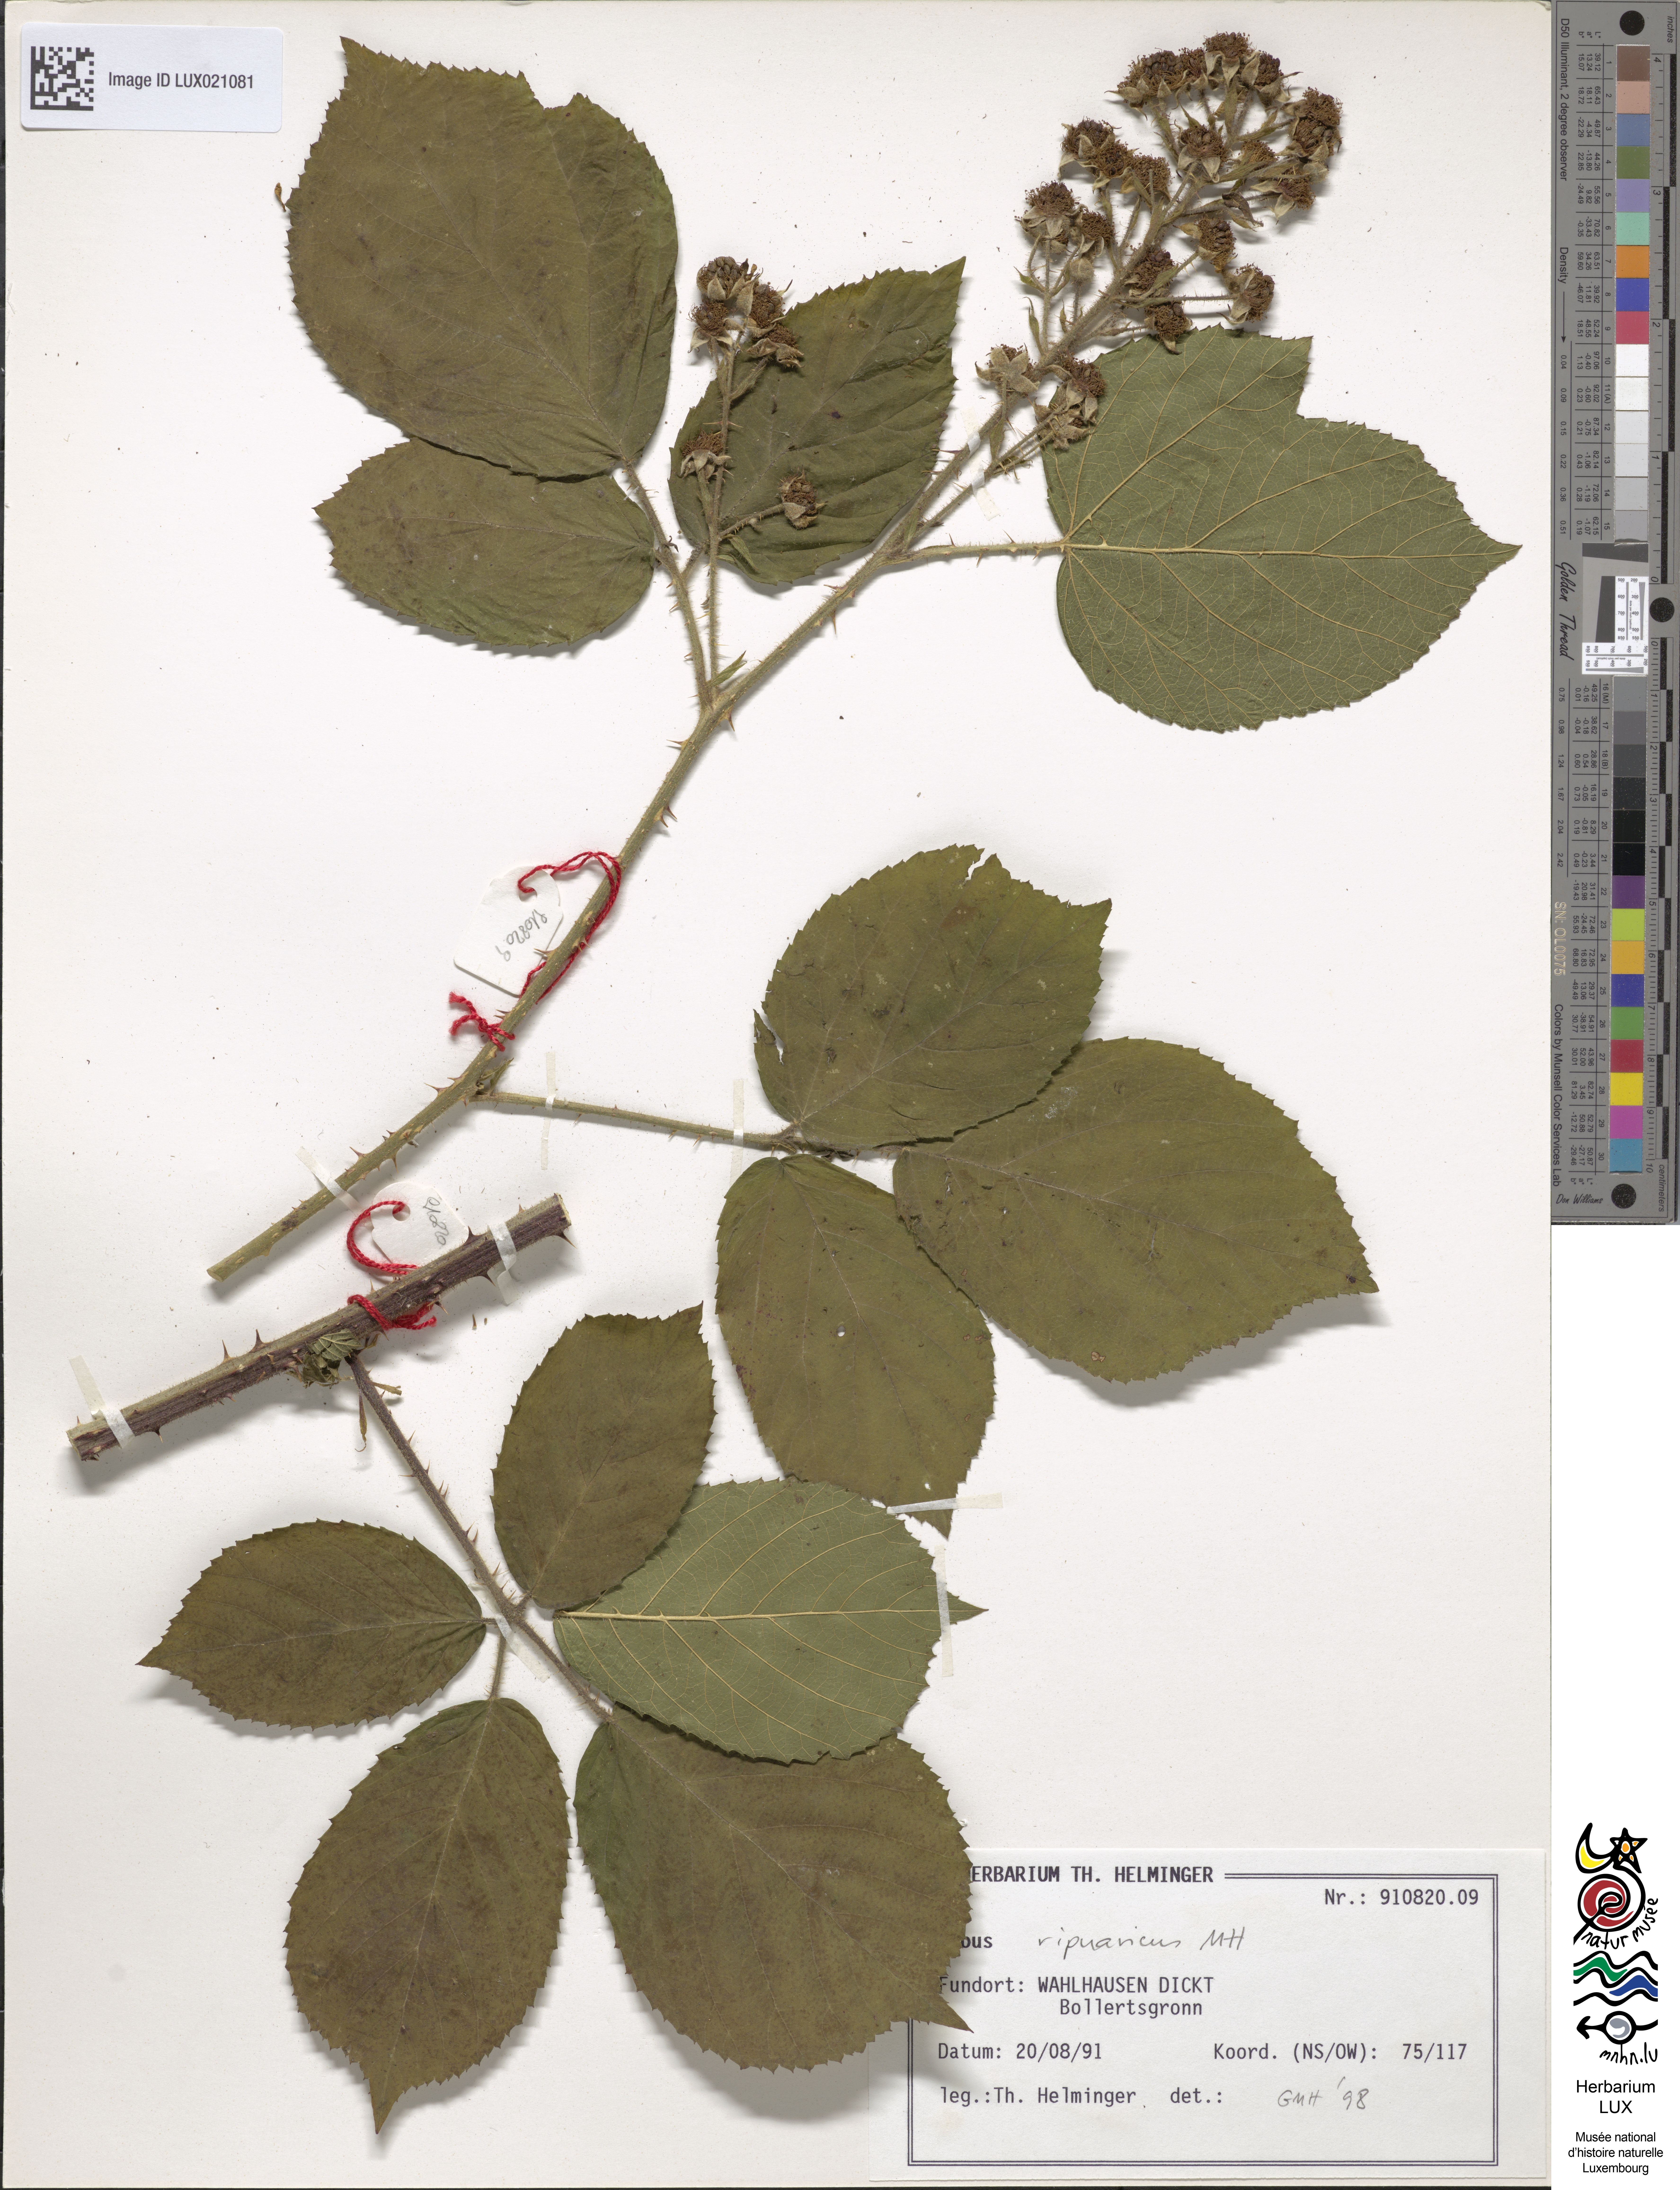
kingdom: Plantae
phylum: Tracheophyta
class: Magnoliopsida
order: Rosales
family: Rosaceae
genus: Rubus
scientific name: Rubus ripuaricus
